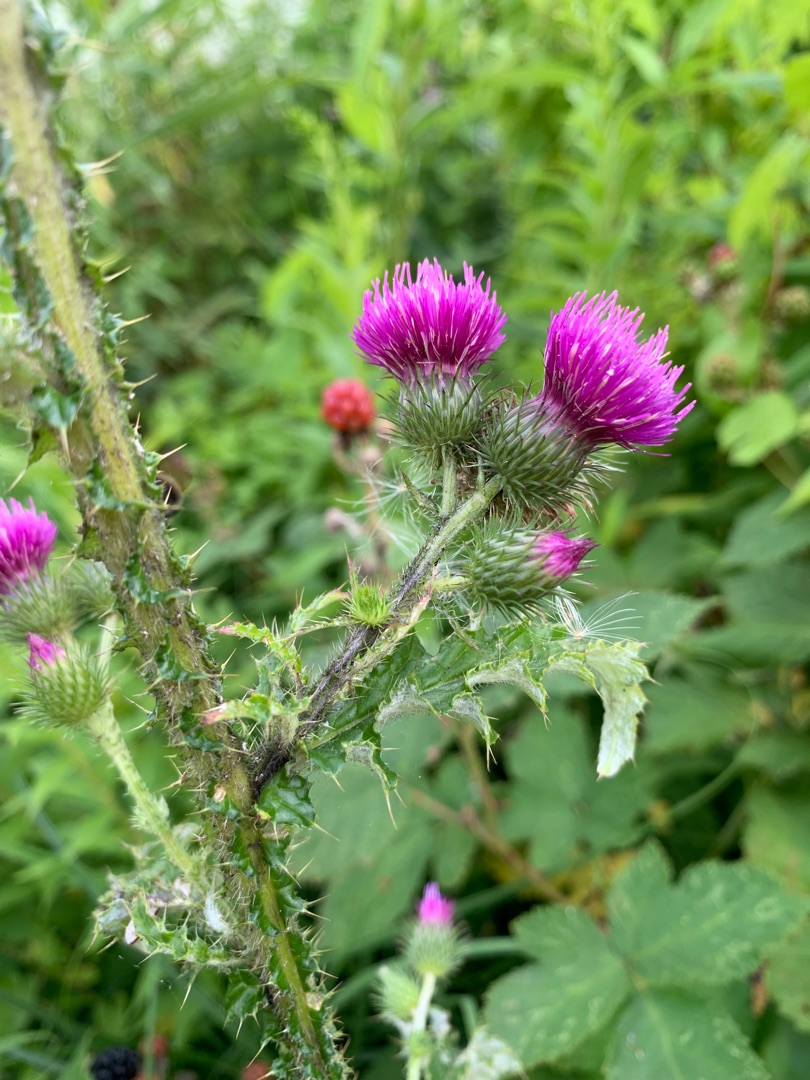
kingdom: Plantae
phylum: Tracheophyta
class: Magnoliopsida
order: Asterales
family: Asteraceae
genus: Carduus
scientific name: Carduus crispus
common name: Kruset tidsel
